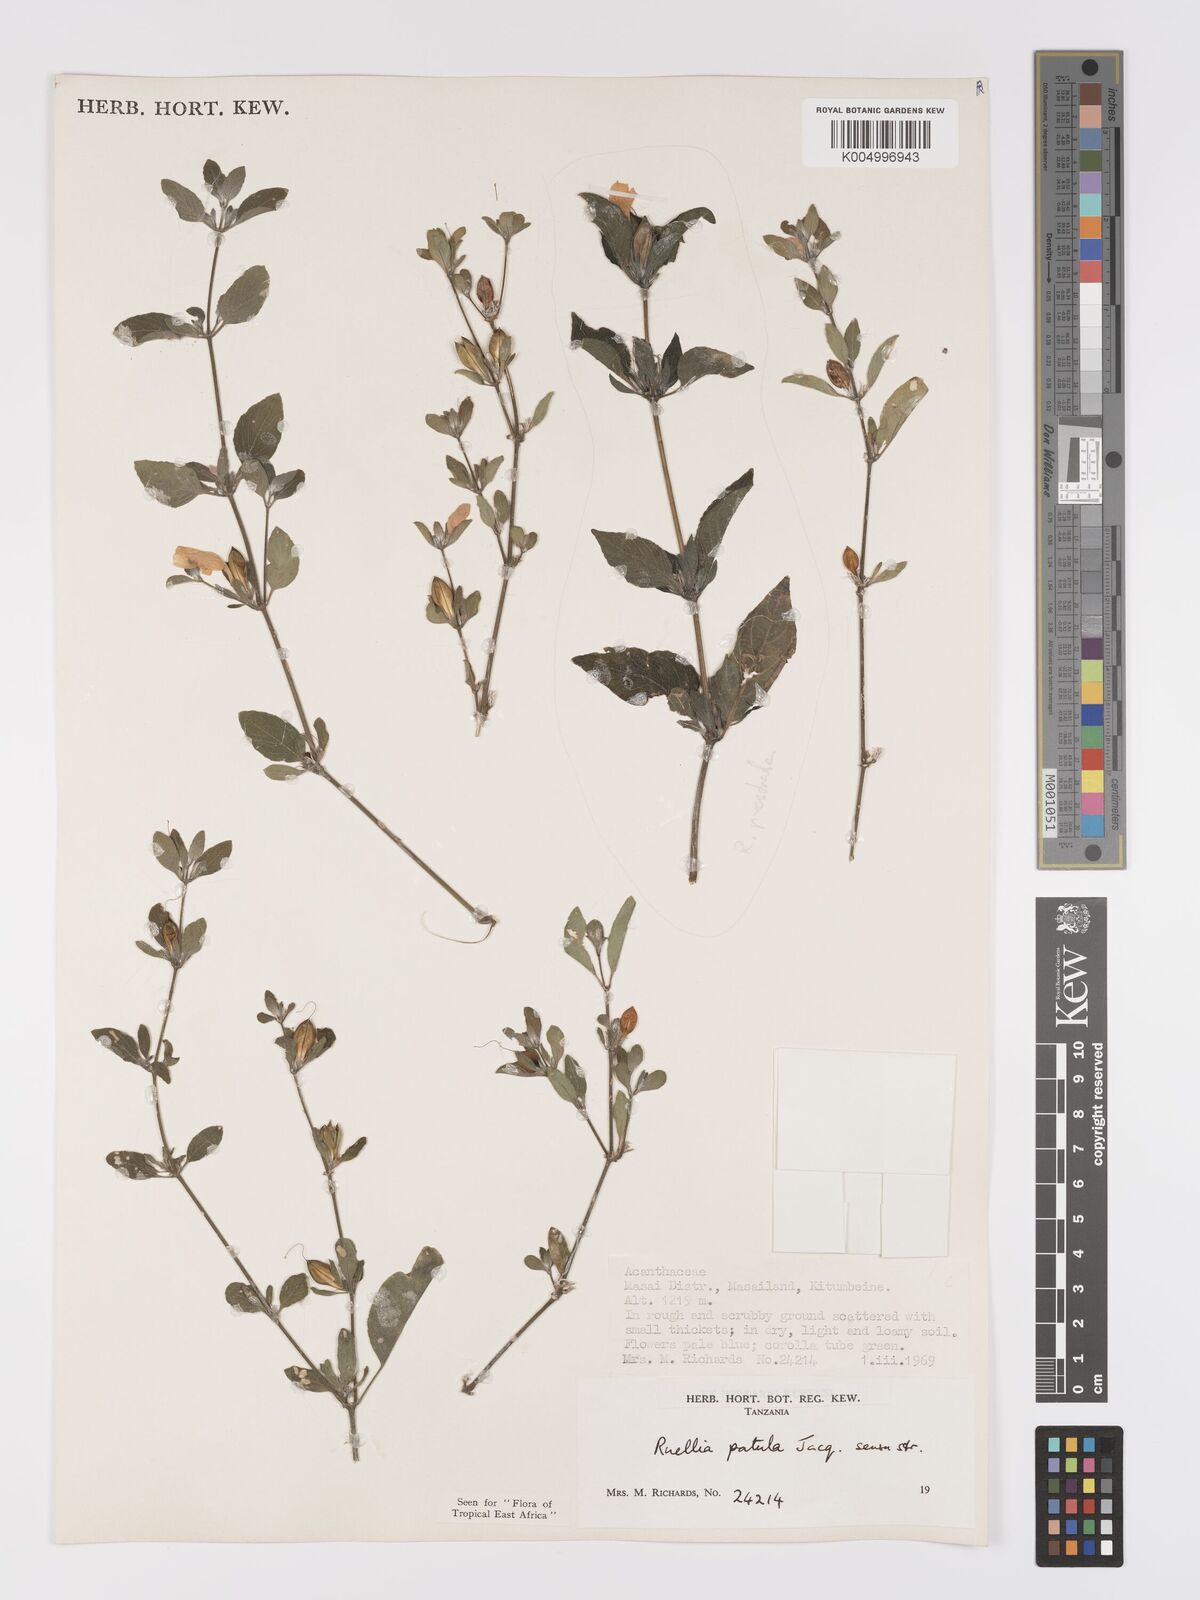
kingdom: Plantae
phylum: Tracheophyta
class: Magnoliopsida
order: Lamiales
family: Acanthaceae
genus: Ruellia
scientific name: Ruellia patula
